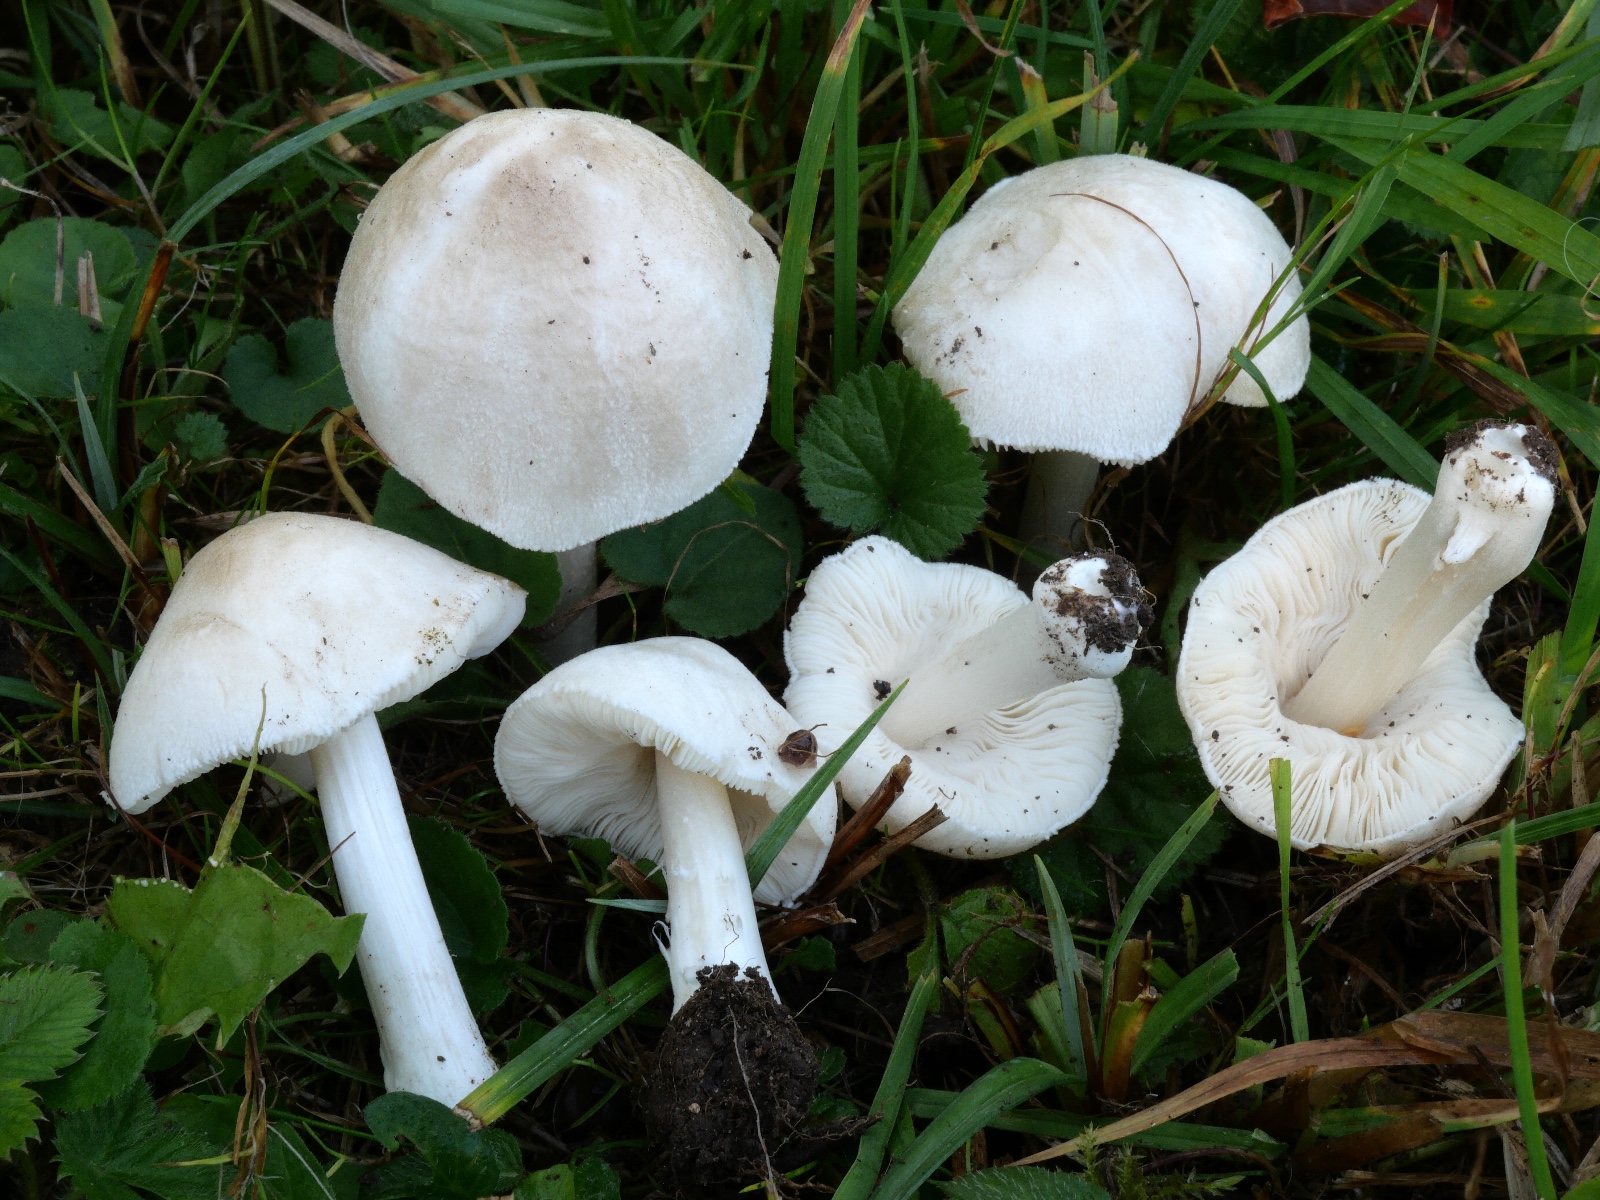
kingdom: Fungi
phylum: Basidiomycota
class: Agaricomycetes
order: Agaricales
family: Pluteaceae
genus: Pluteus
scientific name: Pluteus ephebeus
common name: Sooty shield
